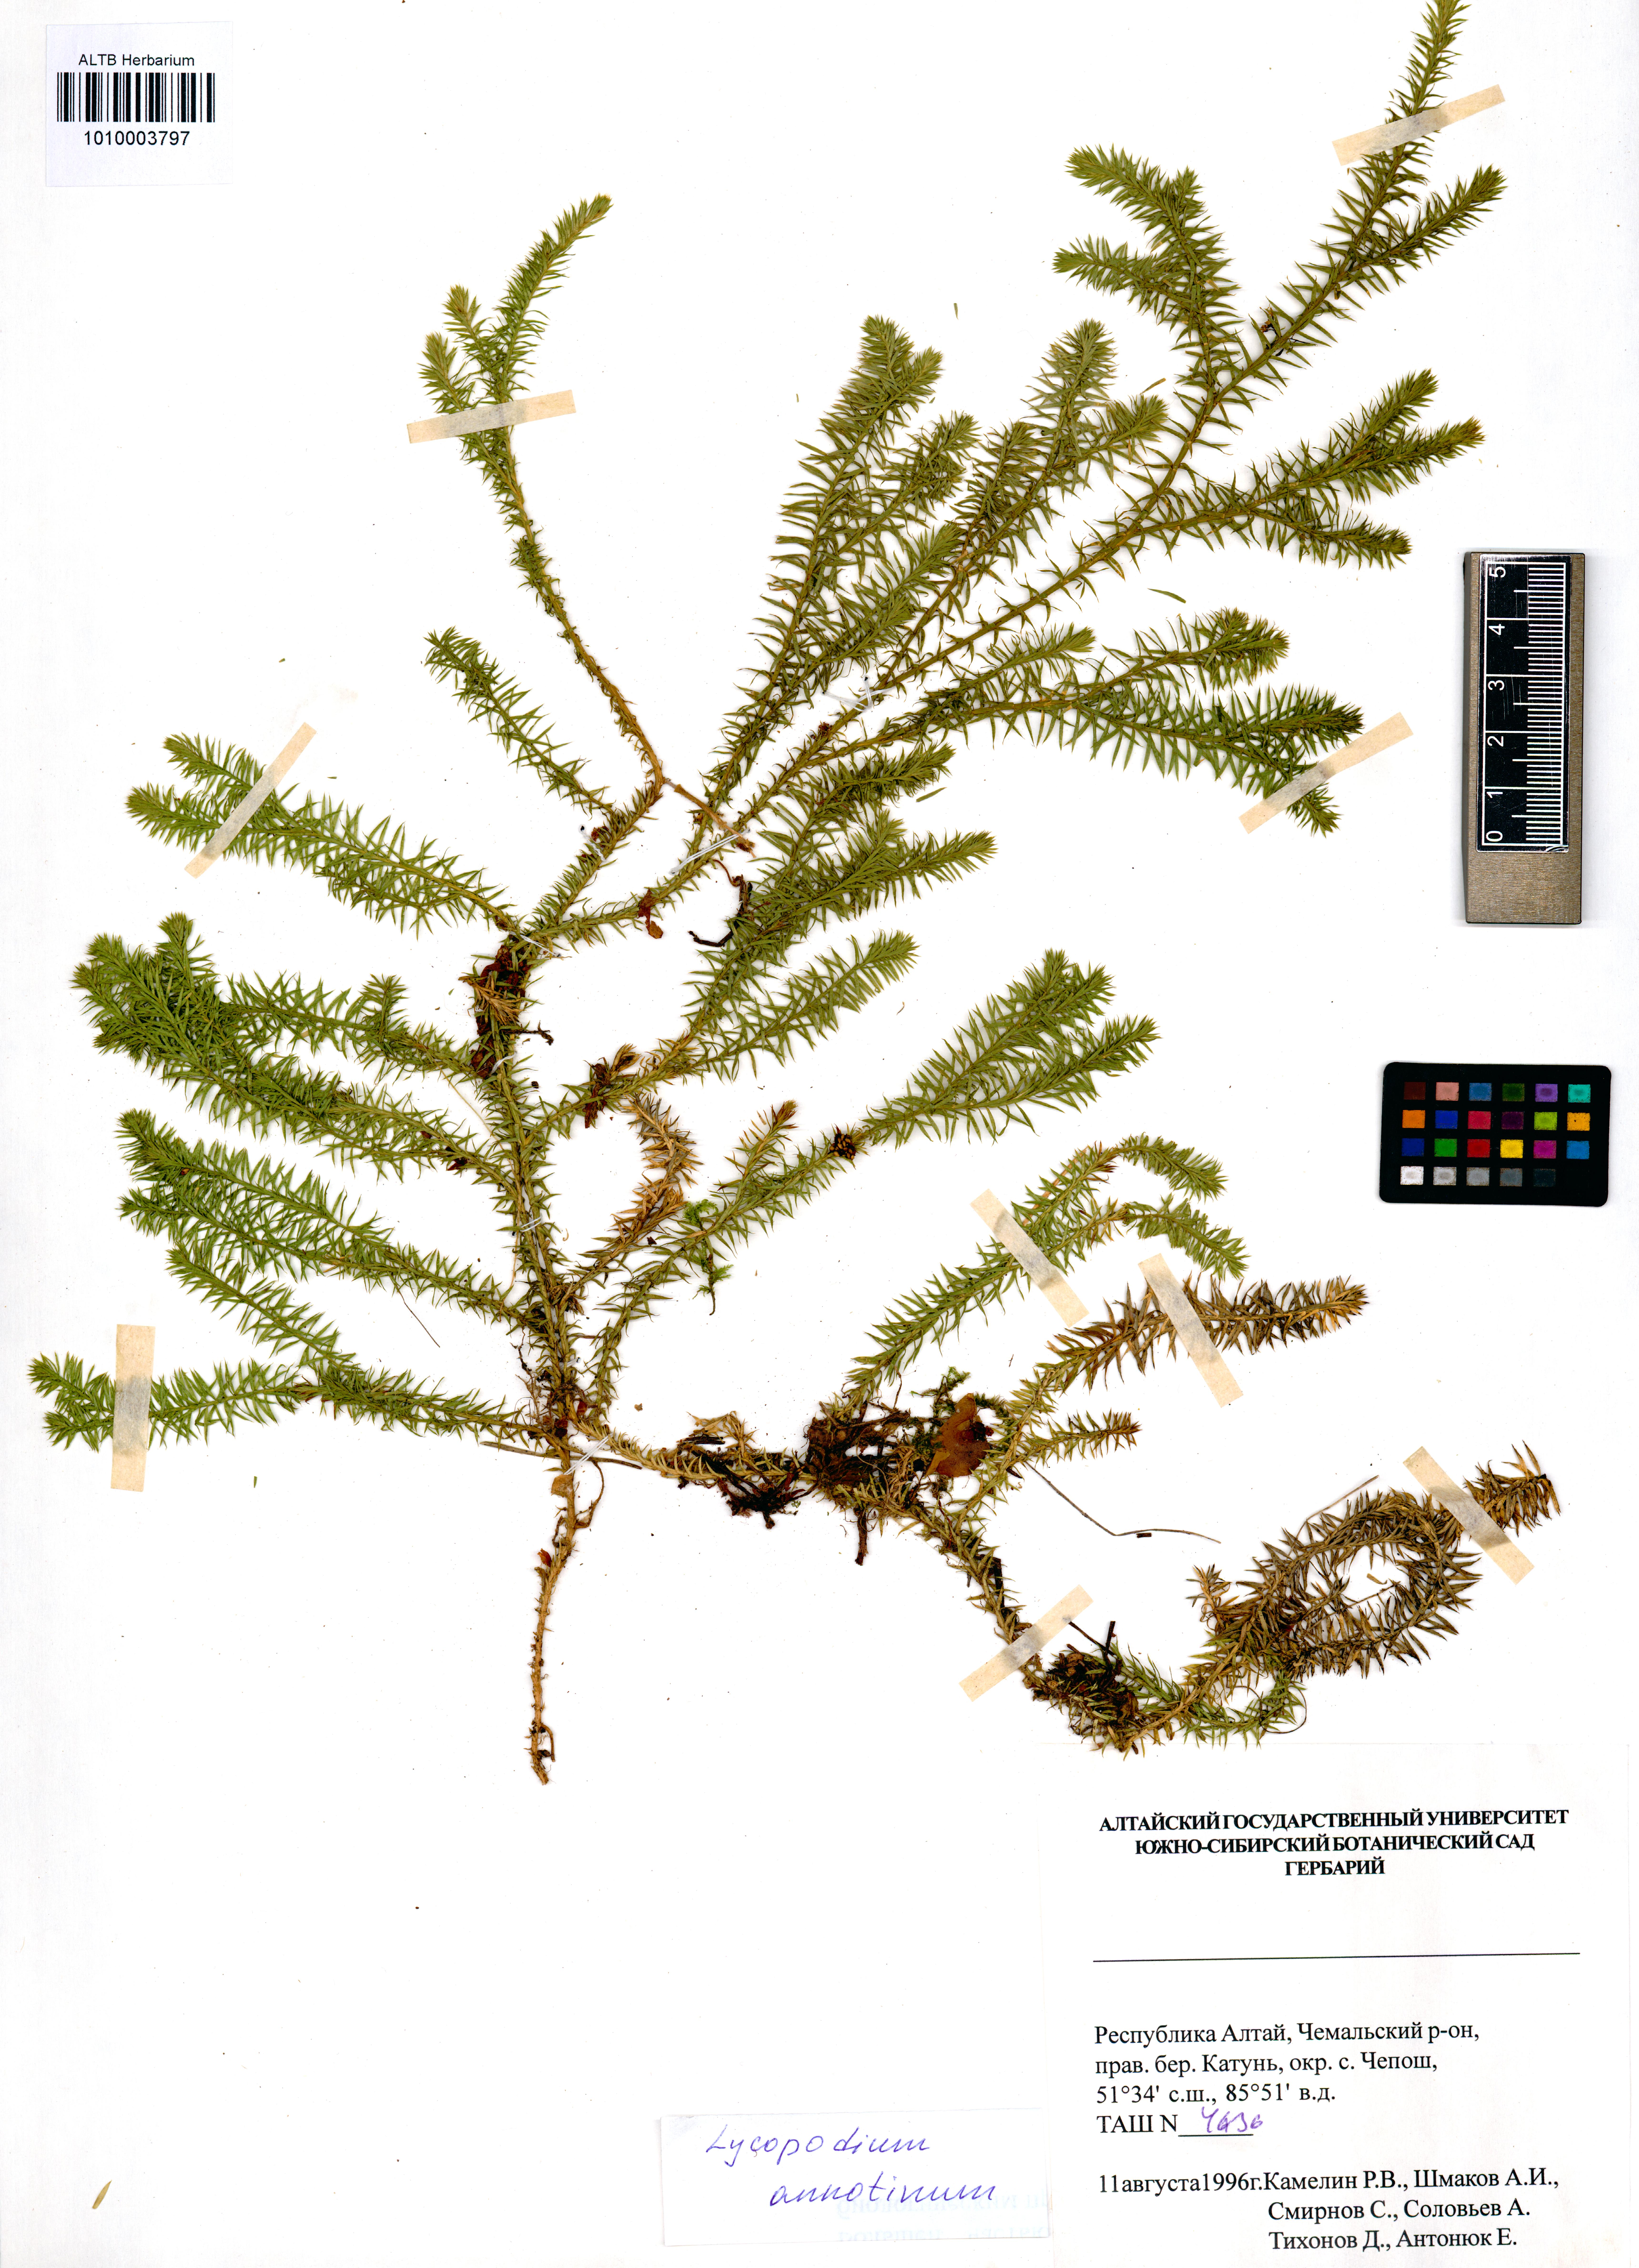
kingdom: Plantae
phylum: Tracheophyta
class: Lycopodiopsida
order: Lycopodiales
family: Lycopodiaceae
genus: Spinulum
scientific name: Spinulum annotinum
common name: Interrupted club-moss
